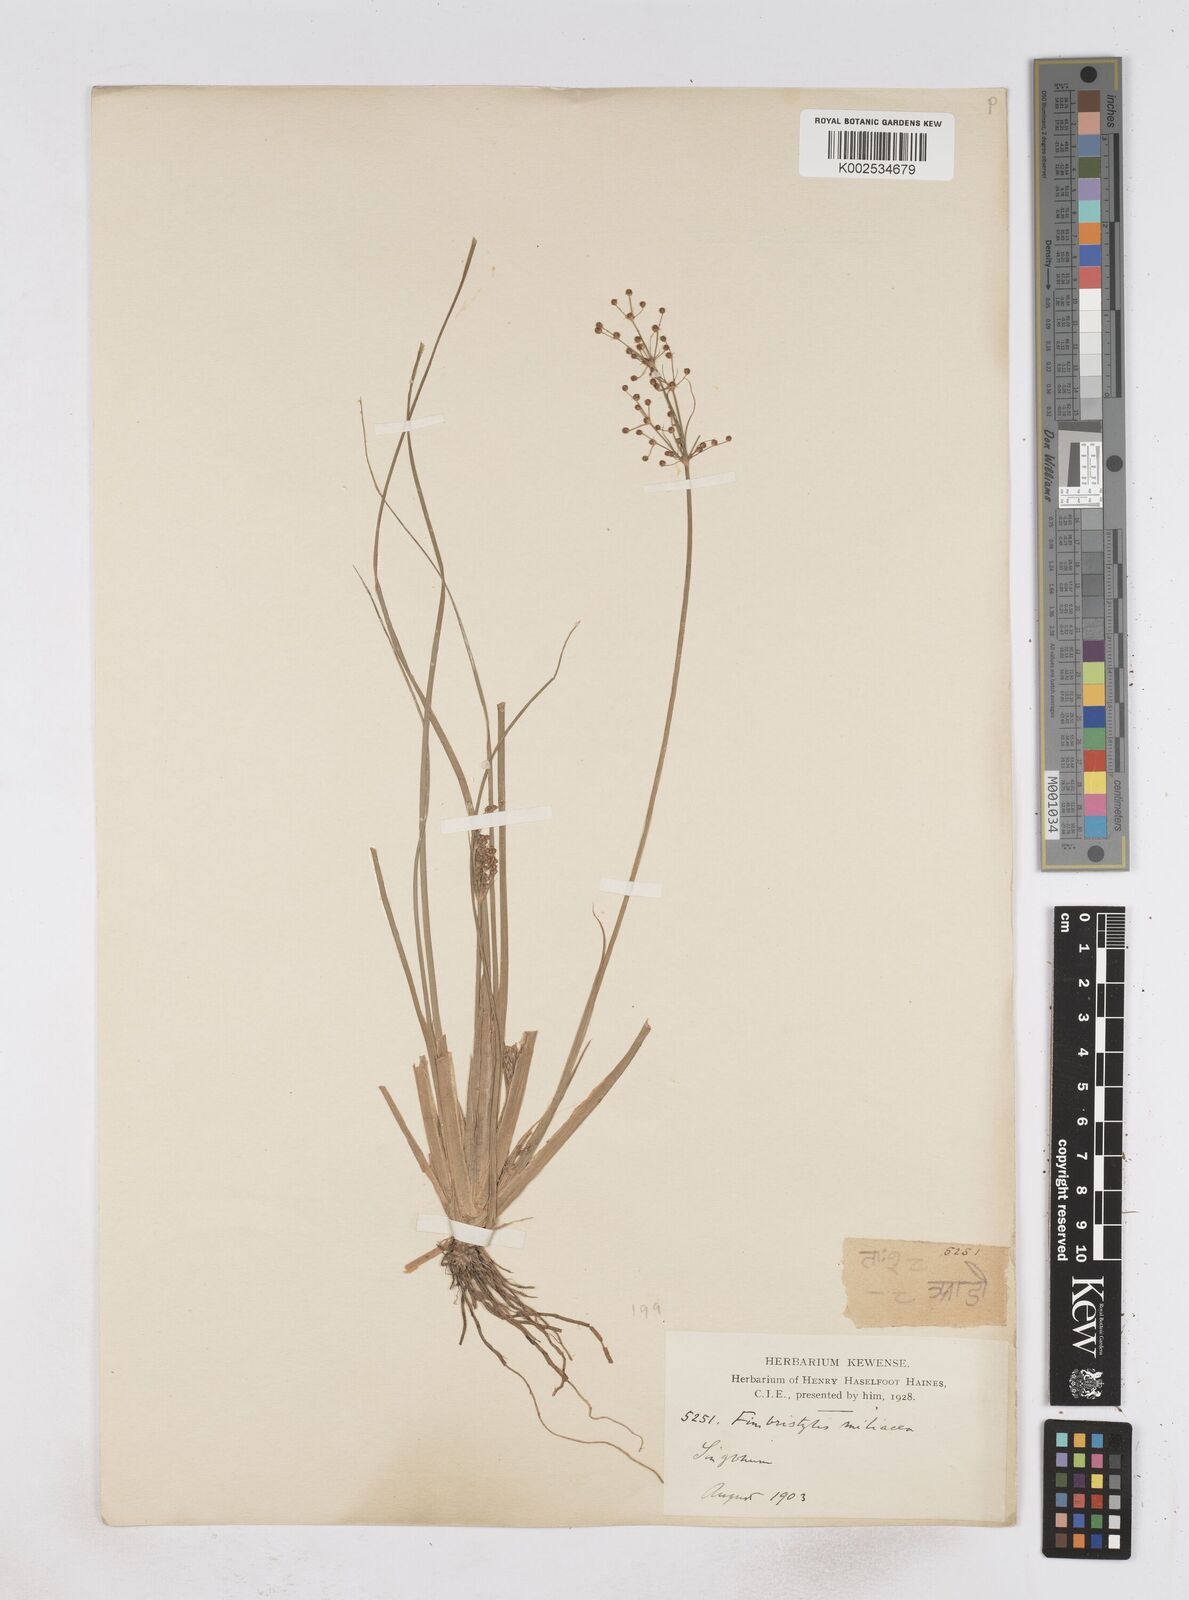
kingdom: Plantae
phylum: Tracheophyta
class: Liliopsida
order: Poales
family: Cyperaceae
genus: Fimbristylis
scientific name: Fimbristylis littoralis
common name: Fimbry
